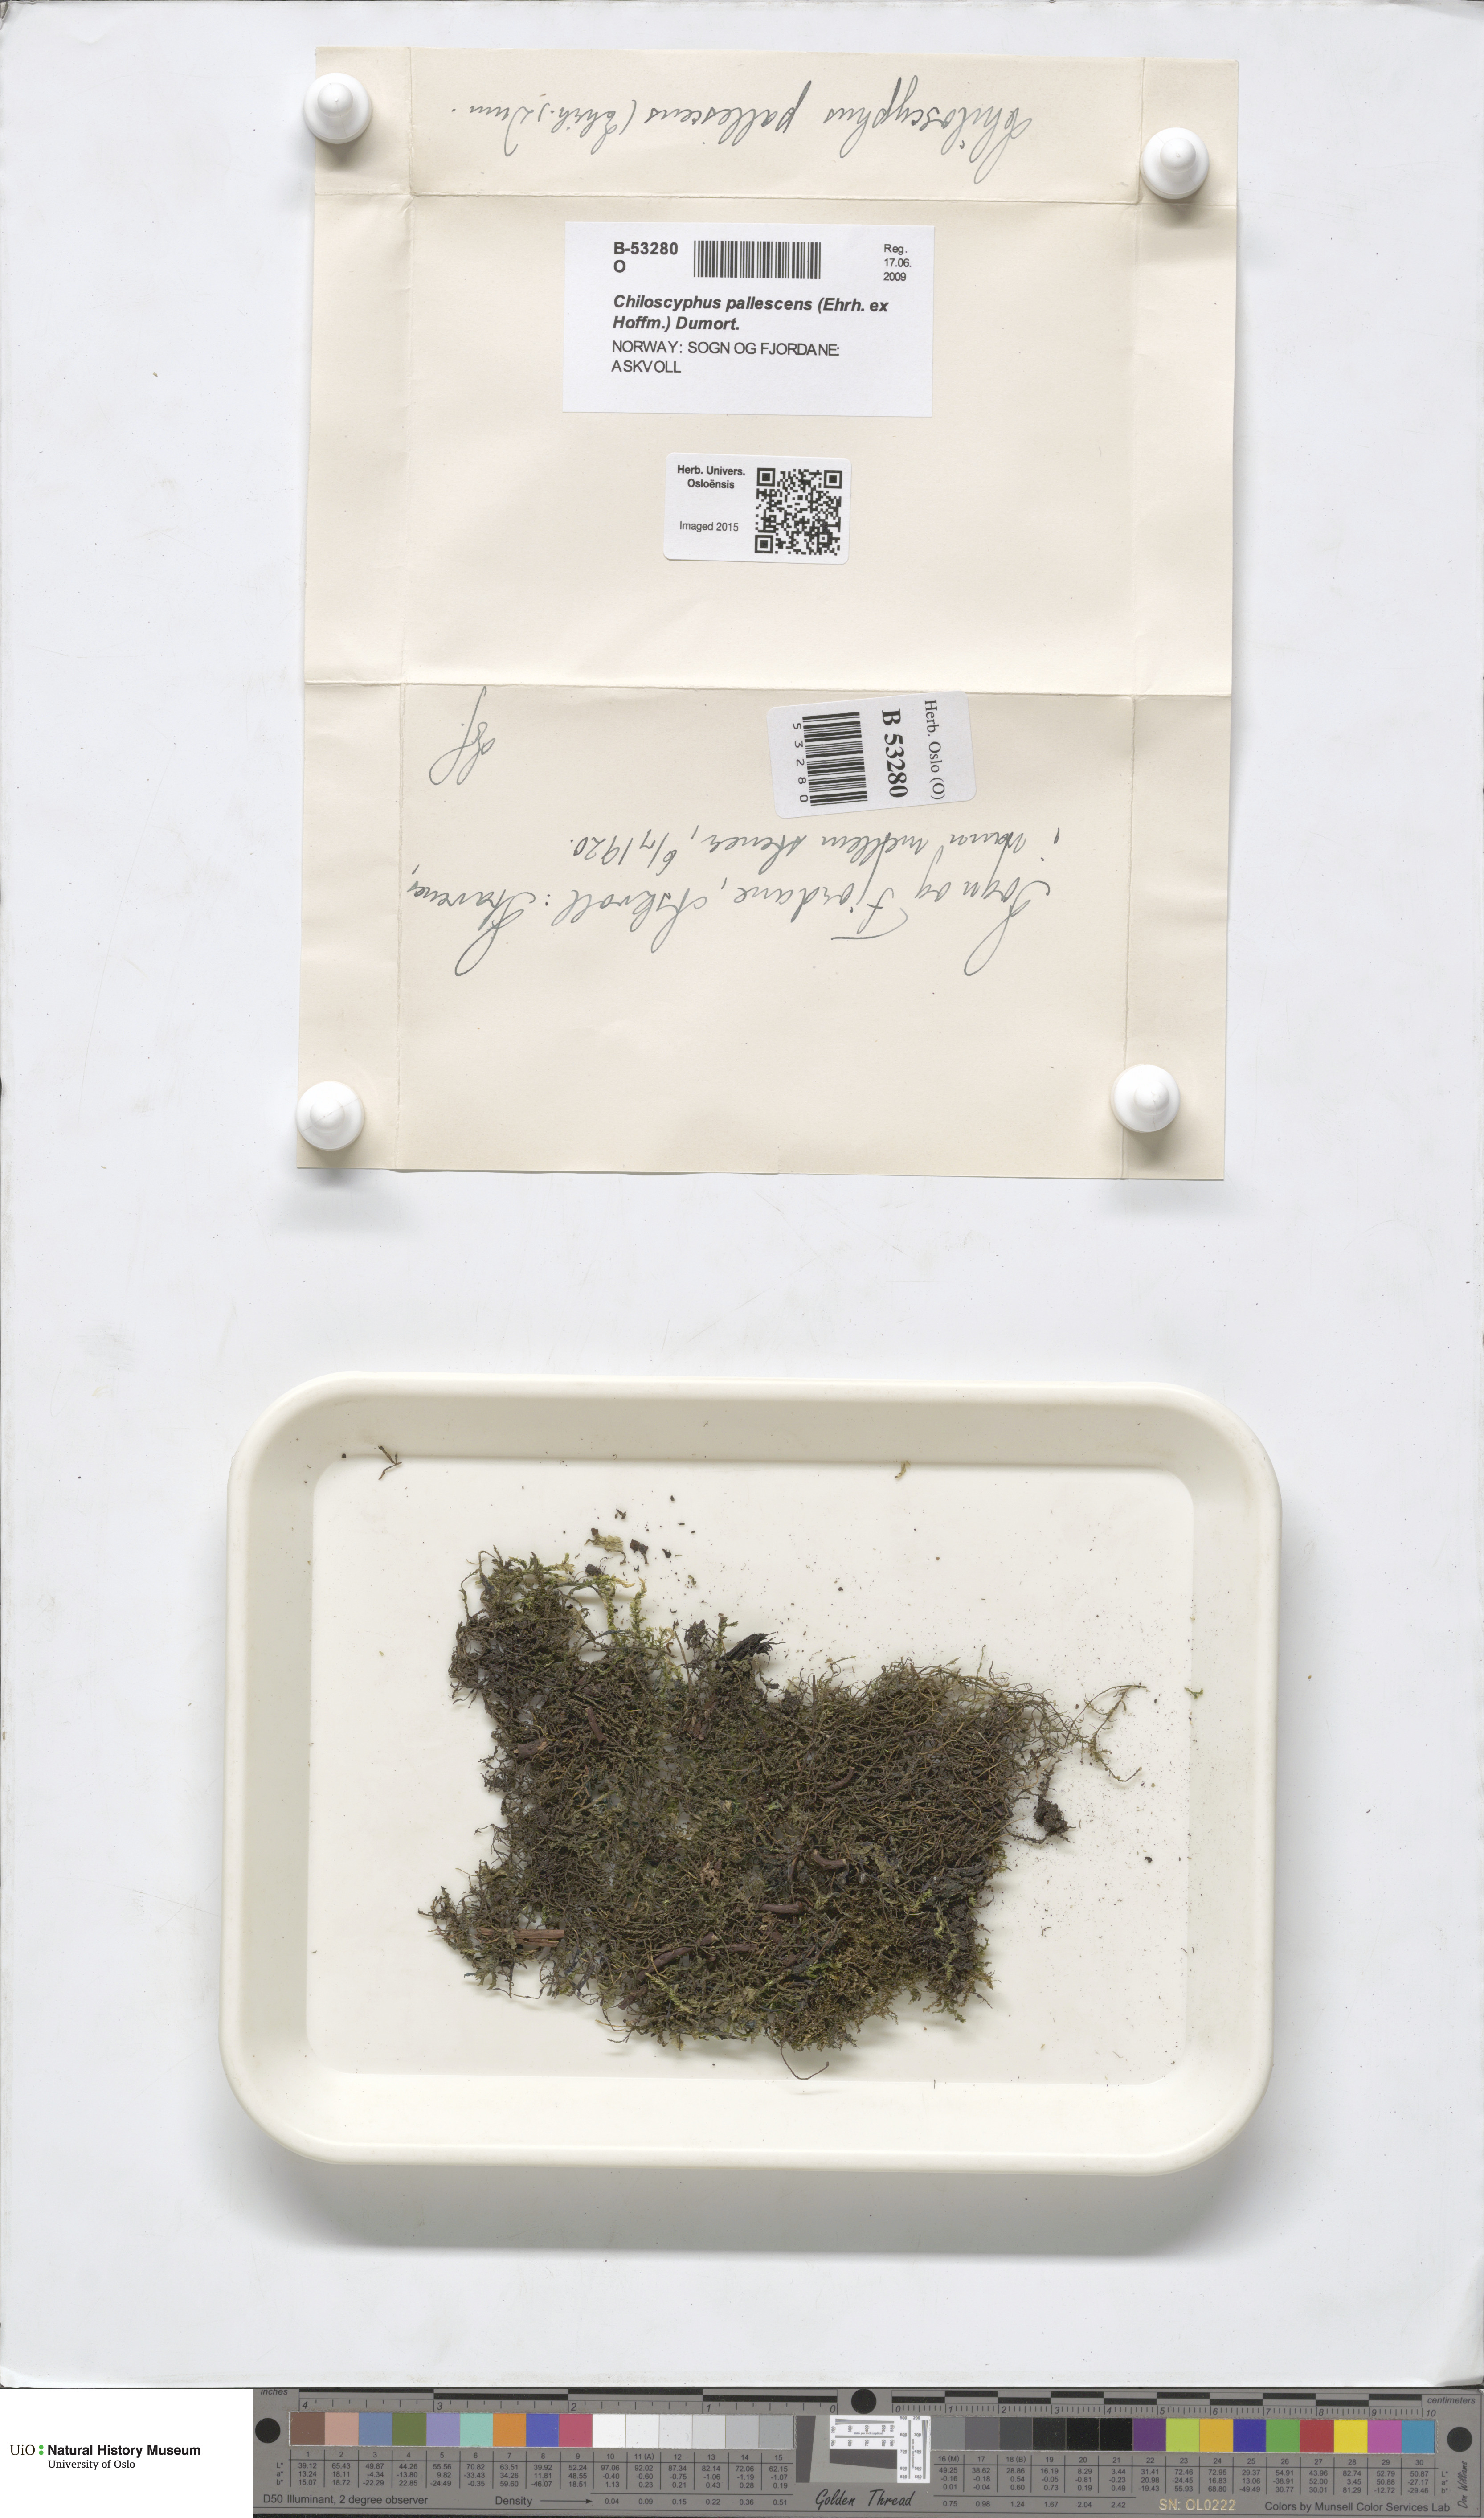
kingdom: Plantae
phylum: Marchantiophyta
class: Jungermanniopsida
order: Jungermanniales
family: Lophocoleaceae
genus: Chiloscyphus
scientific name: Chiloscyphus pallescens
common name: St winifrid's other moss
